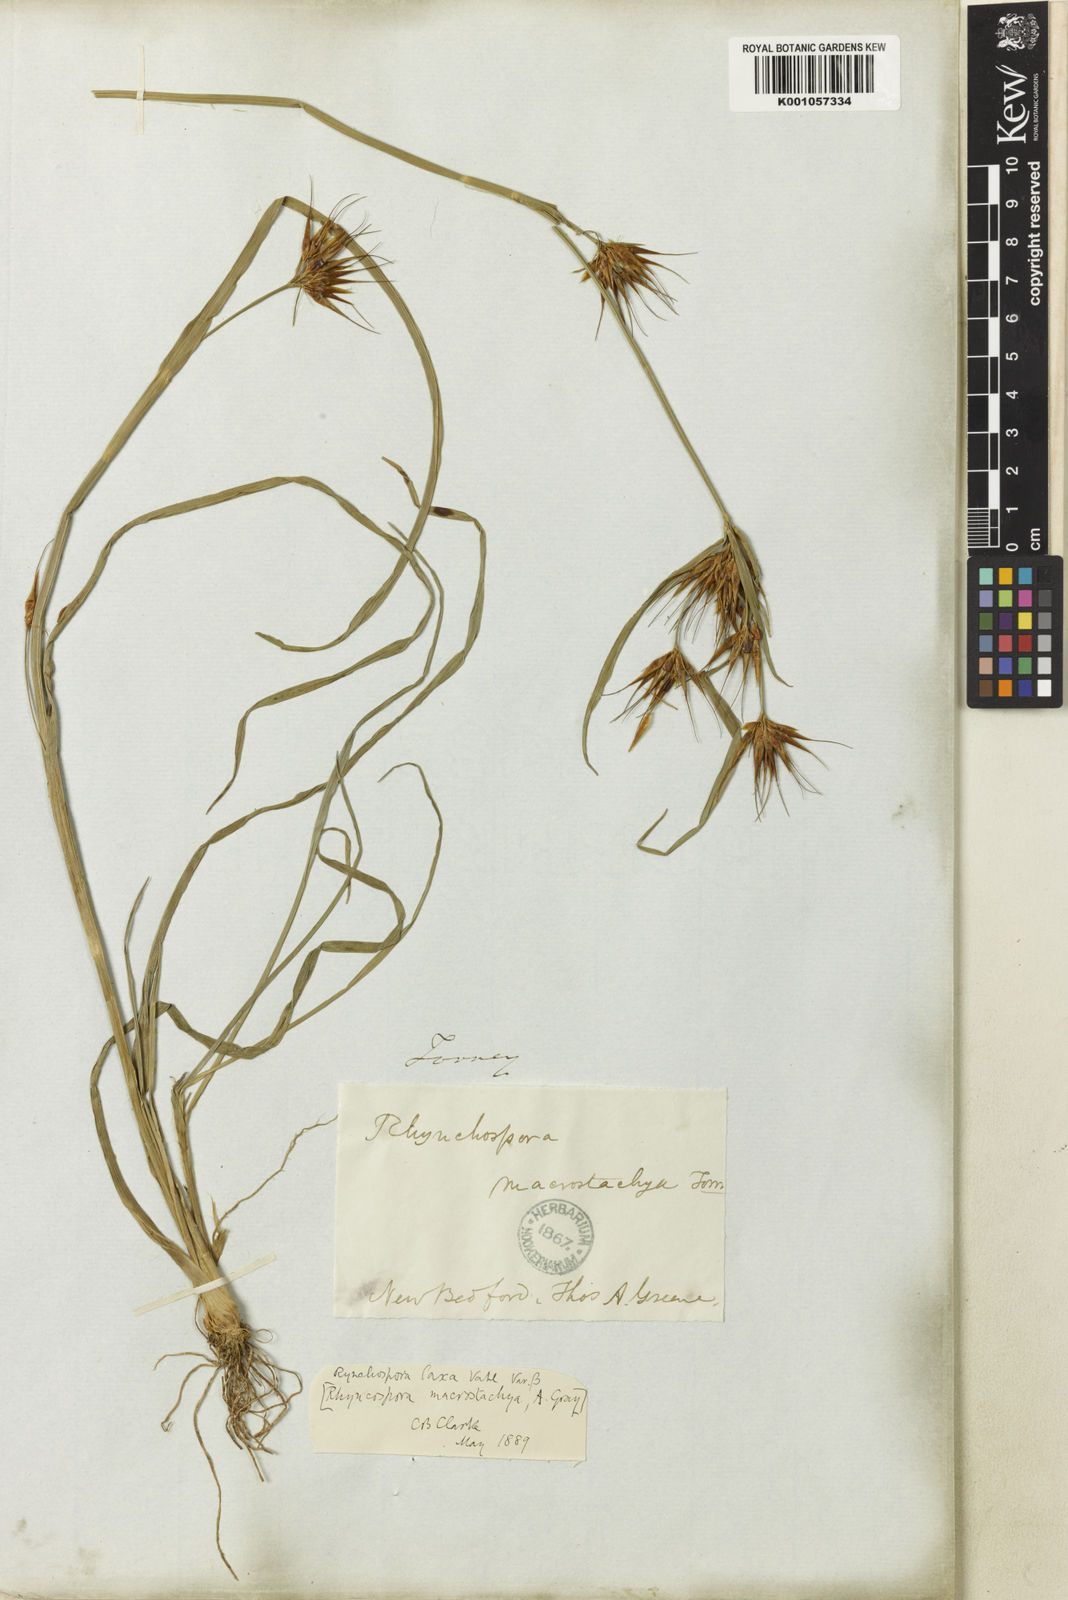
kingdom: Plantae
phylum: Tracheophyta
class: Liliopsida
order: Poales
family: Cyperaceae
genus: Rhynchospora
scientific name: Rhynchospora corniculata
